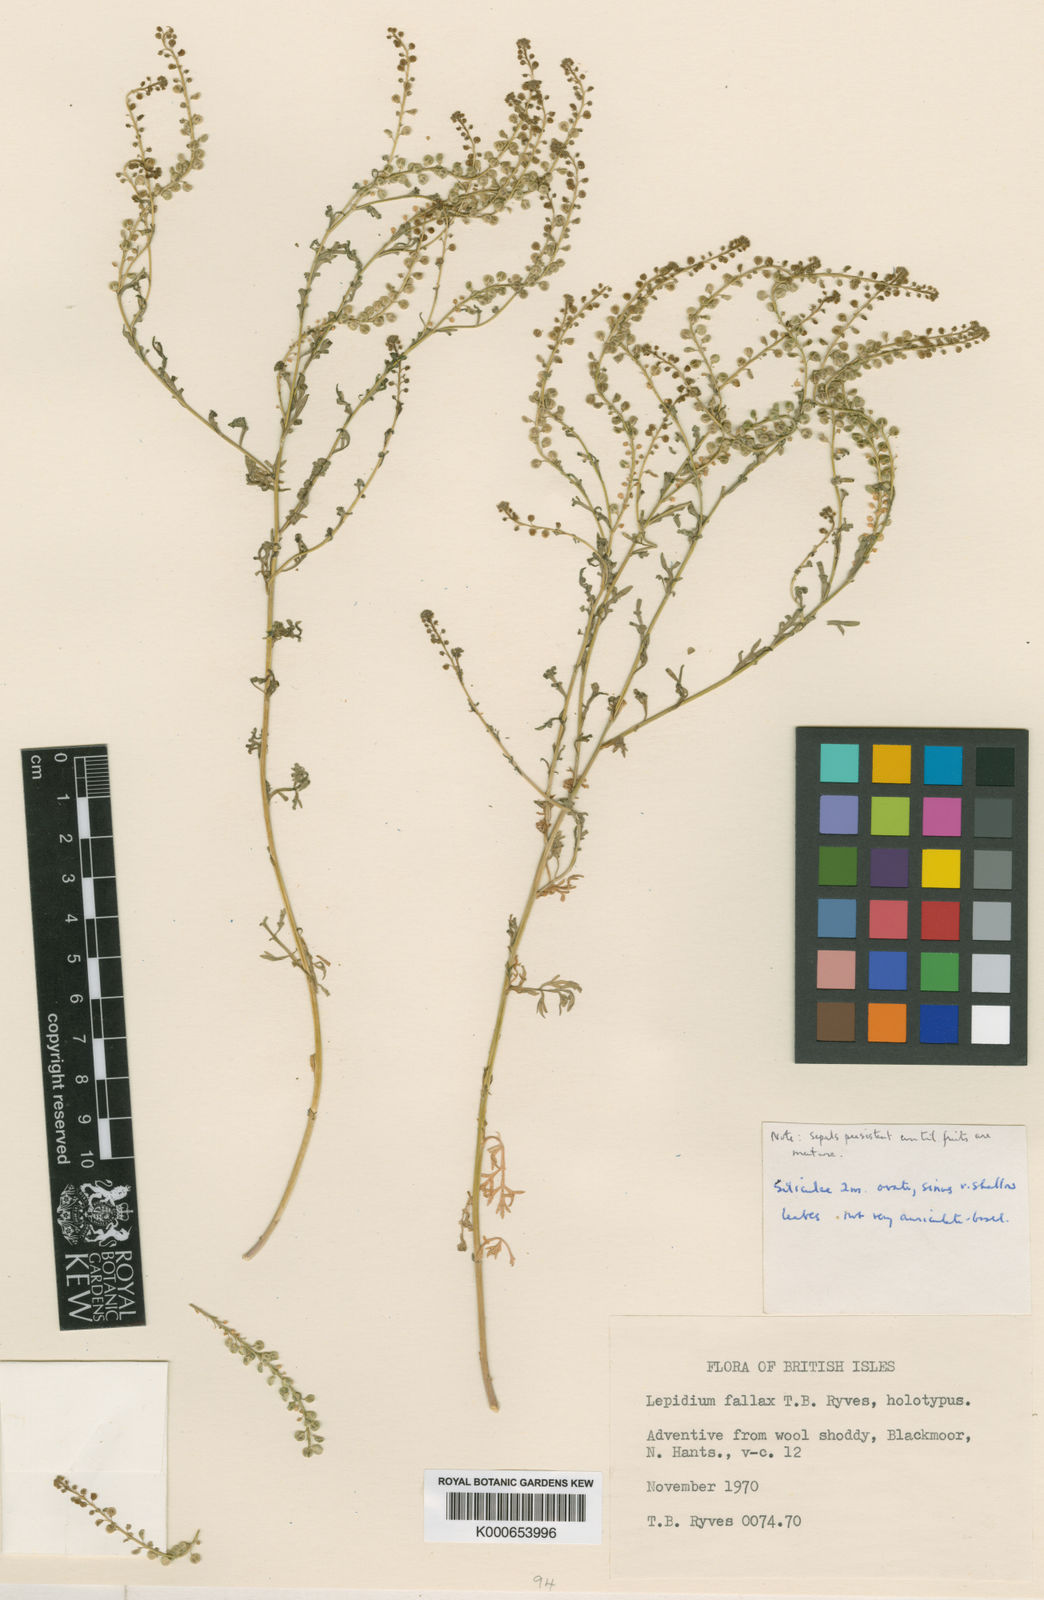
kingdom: Plantae
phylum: Tracheophyta
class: Magnoliopsida
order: Brassicales
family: Brassicaceae
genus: Lepidium
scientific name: Lepidium fallax
